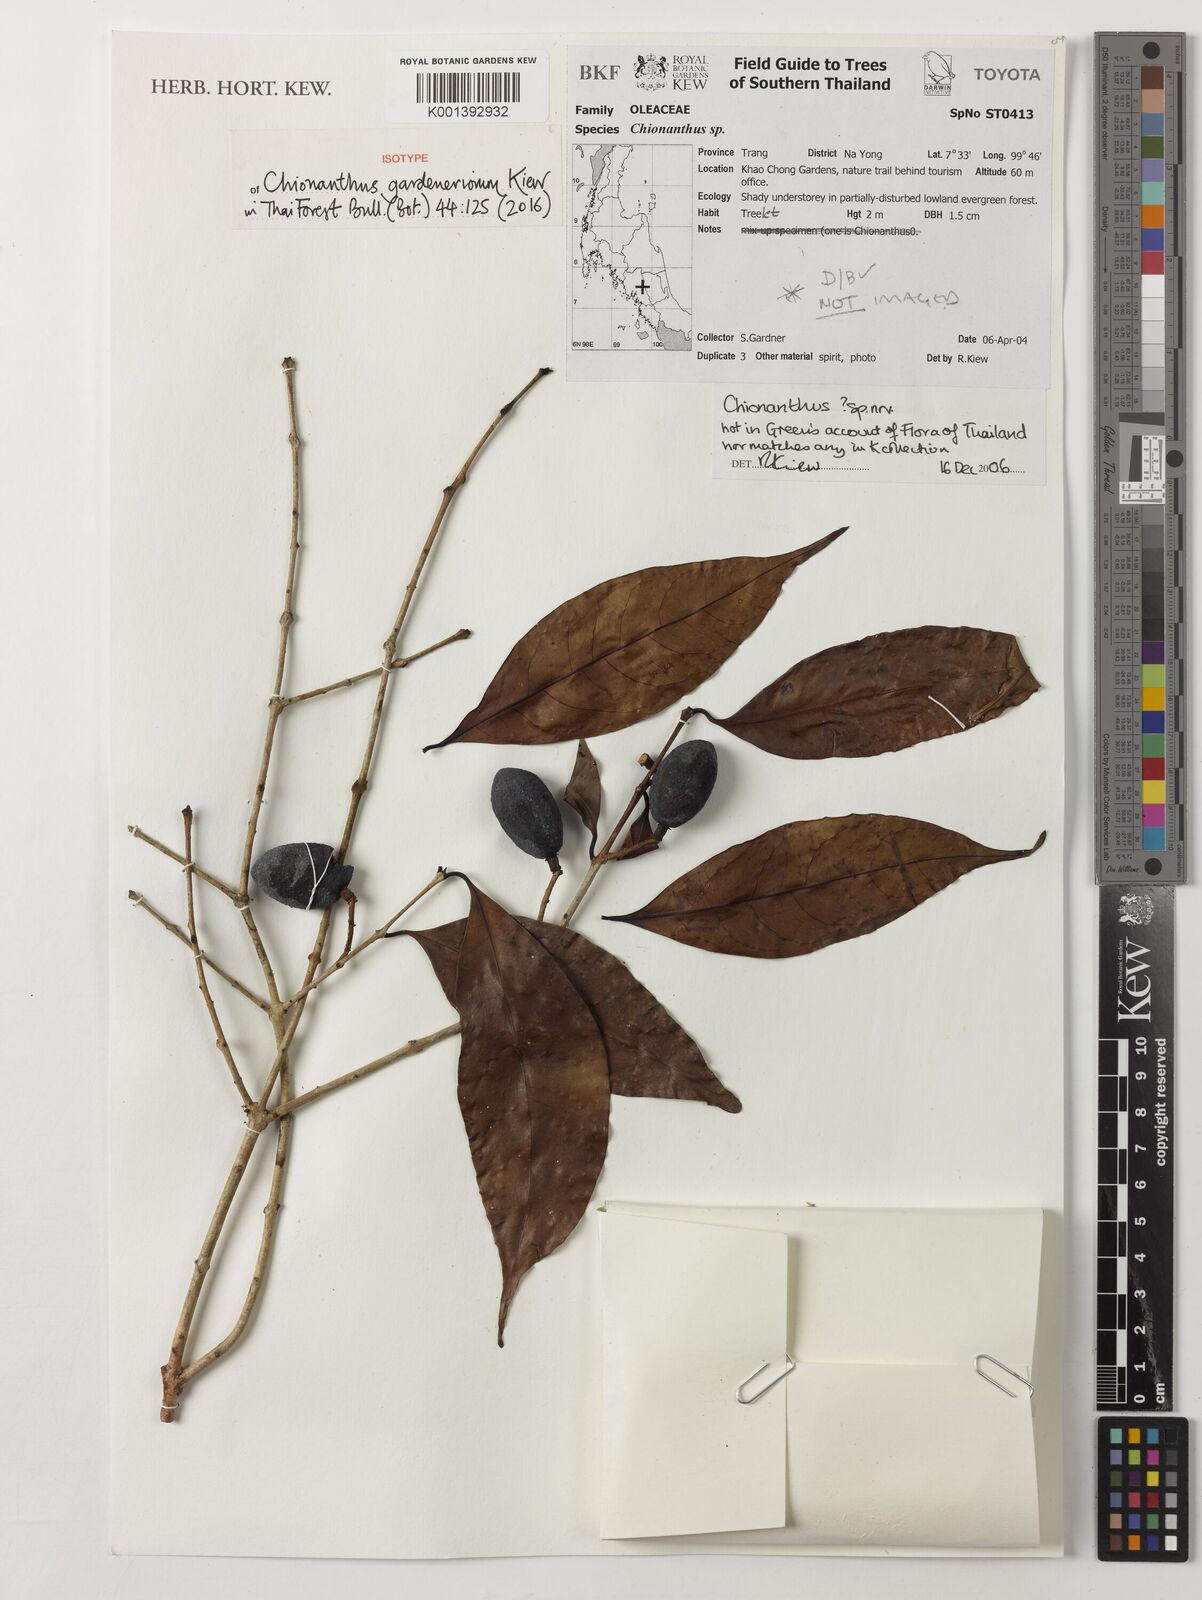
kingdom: Plantae
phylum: Tracheophyta
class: Magnoliopsida
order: Lamiales
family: Oleaceae
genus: Chionanthus
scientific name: Chionanthus gardneriorum
